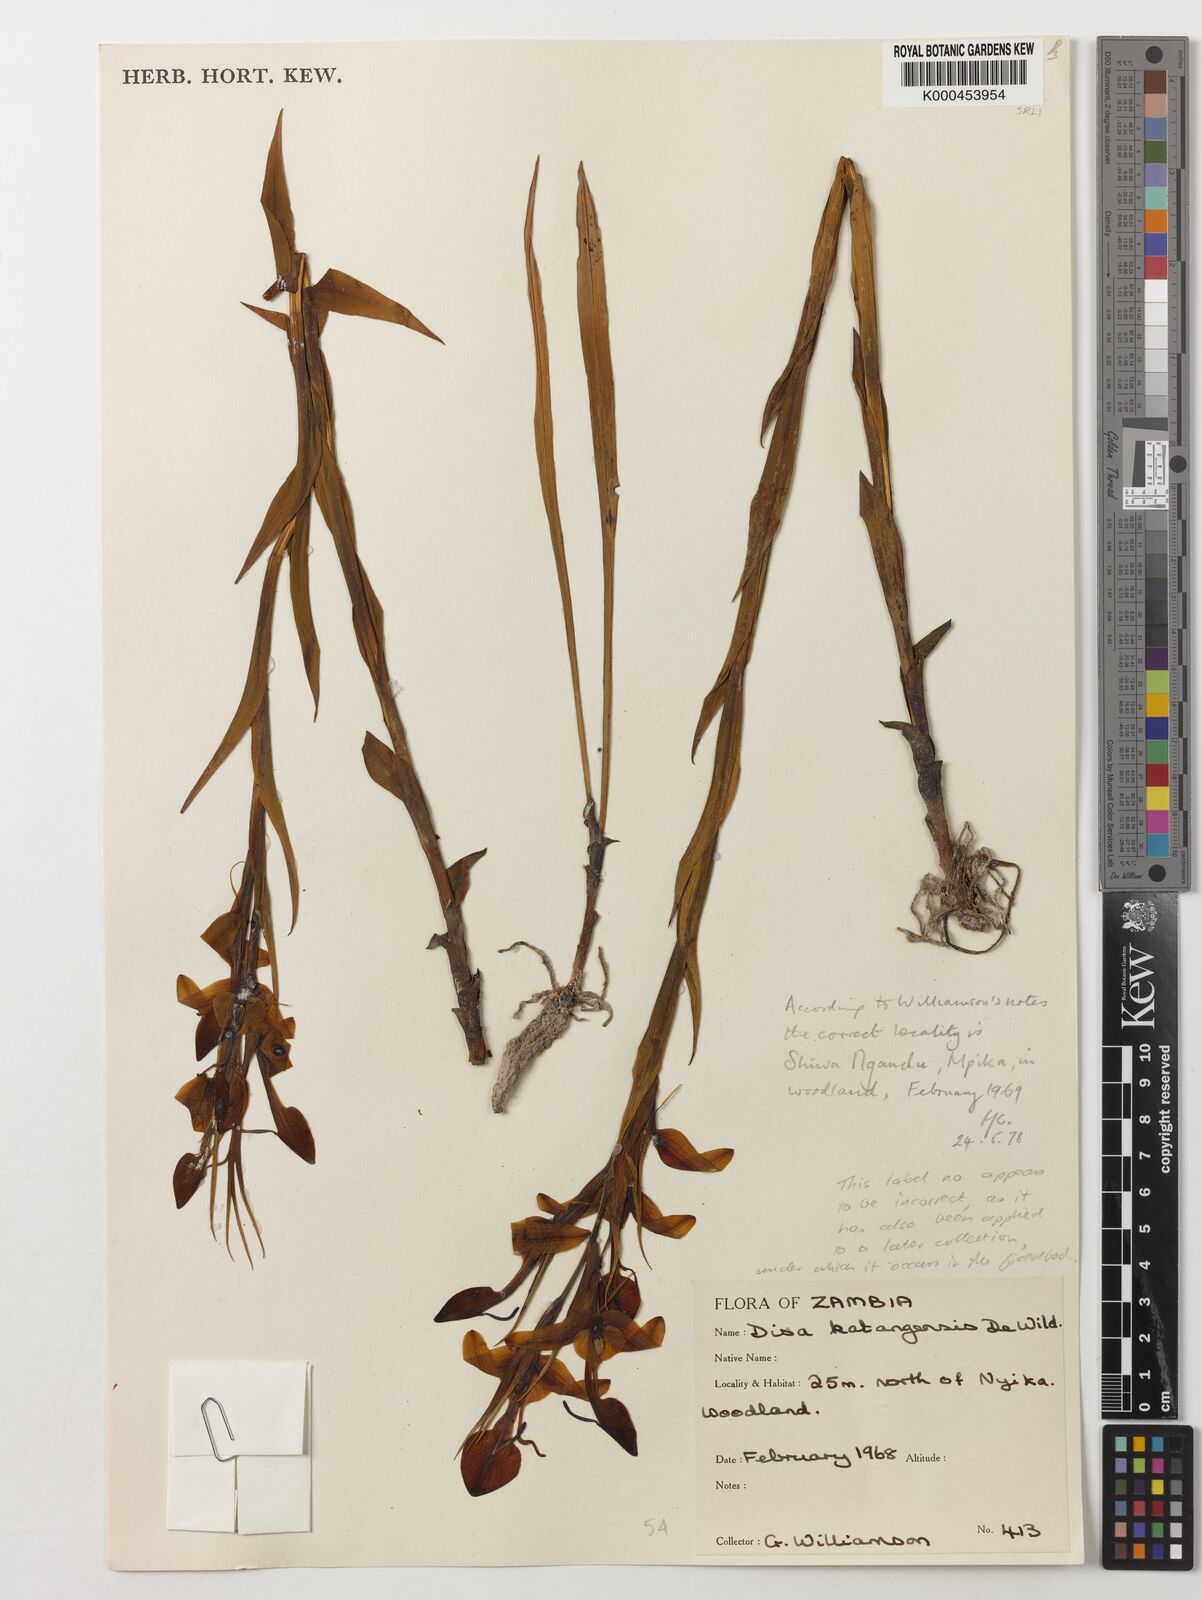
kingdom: Plantae
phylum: Tracheophyta
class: Liliopsida
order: Asparagales
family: Orchidaceae
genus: Disa
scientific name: Disa katangensis
